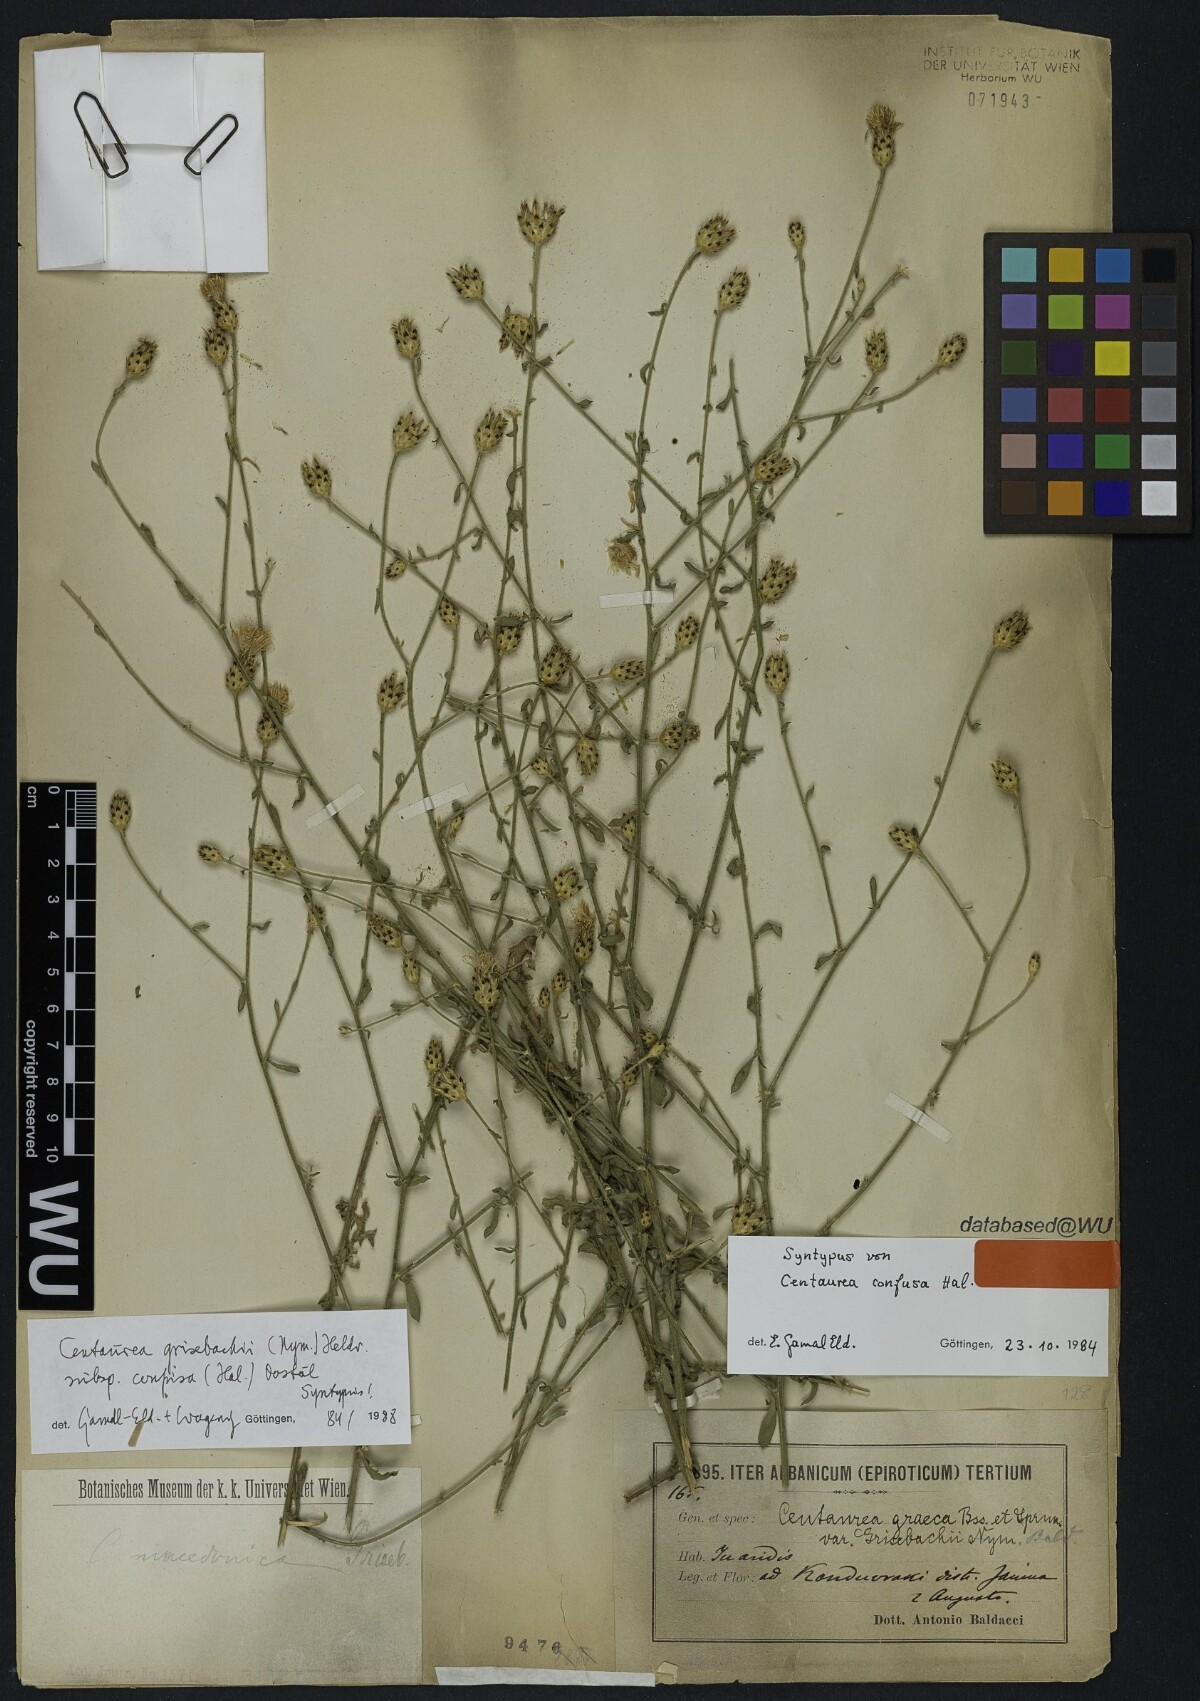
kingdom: Plantae
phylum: Tracheophyta
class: Magnoliopsida
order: Asterales
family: Asteraceae
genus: Centaurea
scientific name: Centaurea grisebachii
